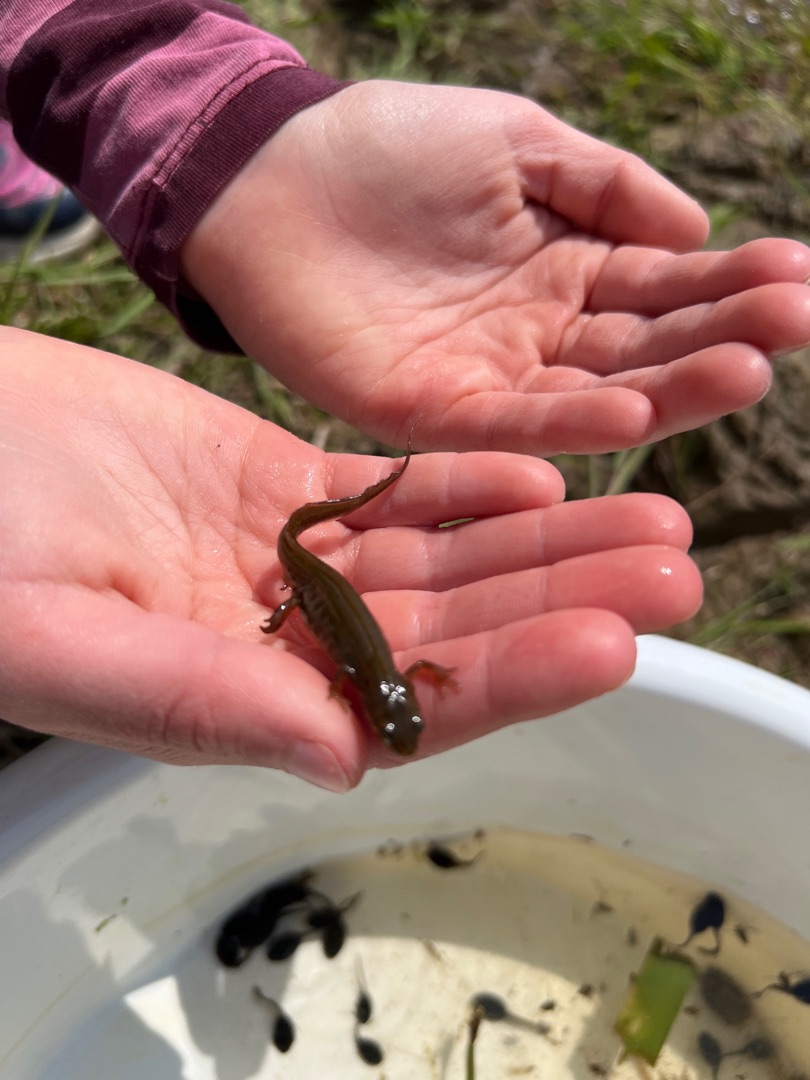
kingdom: Animalia
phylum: Chordata
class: Amphibia
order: Caudata
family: Salamandridae
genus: Lissotriton
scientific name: Lissotriton vulgaris
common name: Lille vandsalamander
